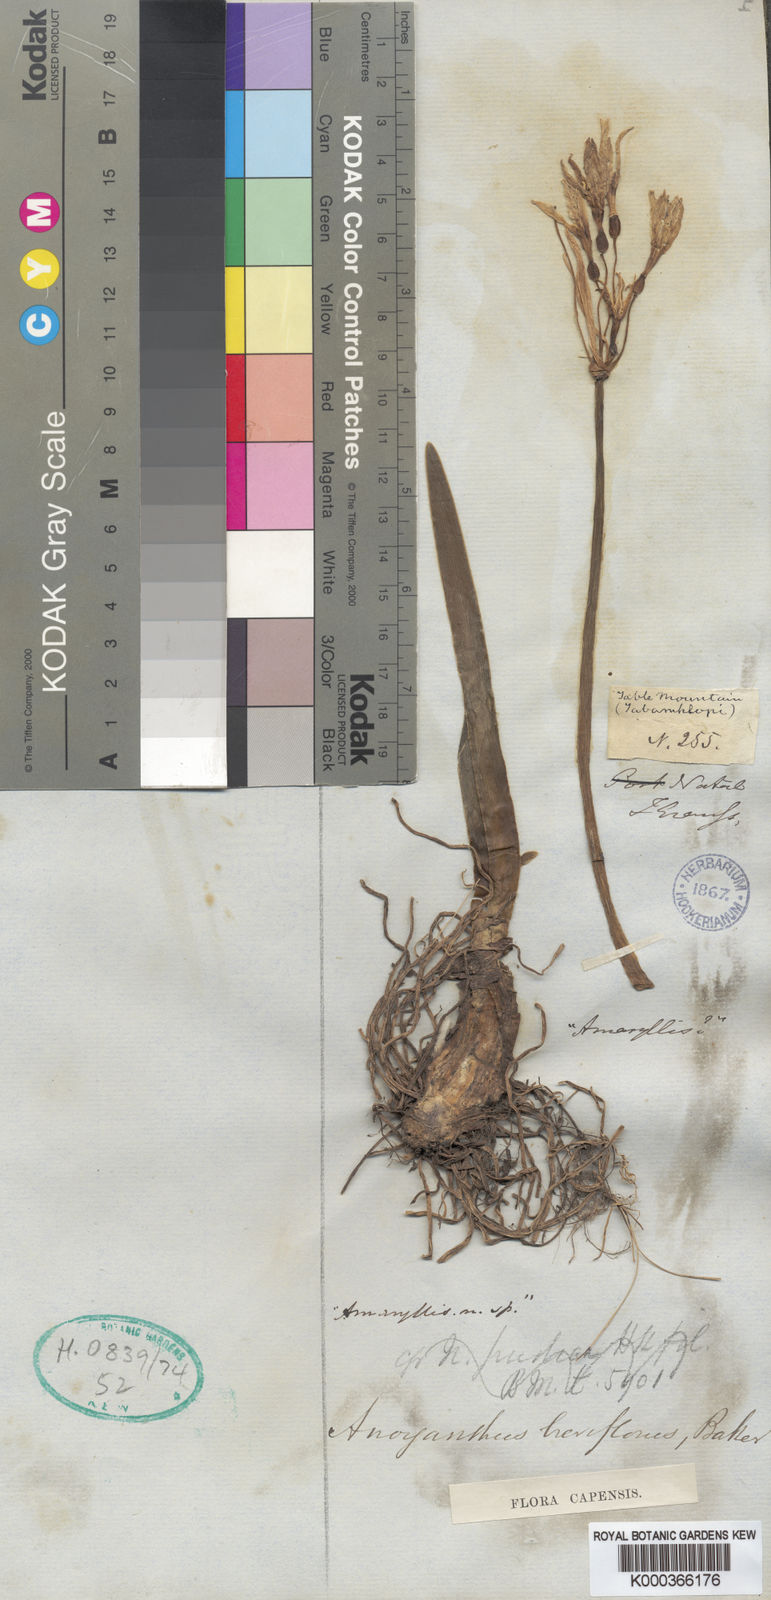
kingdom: Plantae
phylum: Tracheophyta
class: Liliopsida
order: Asparagales
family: Amaryllidaceae
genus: Cyrtanthus
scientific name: Cyrtanthus breviflorus
